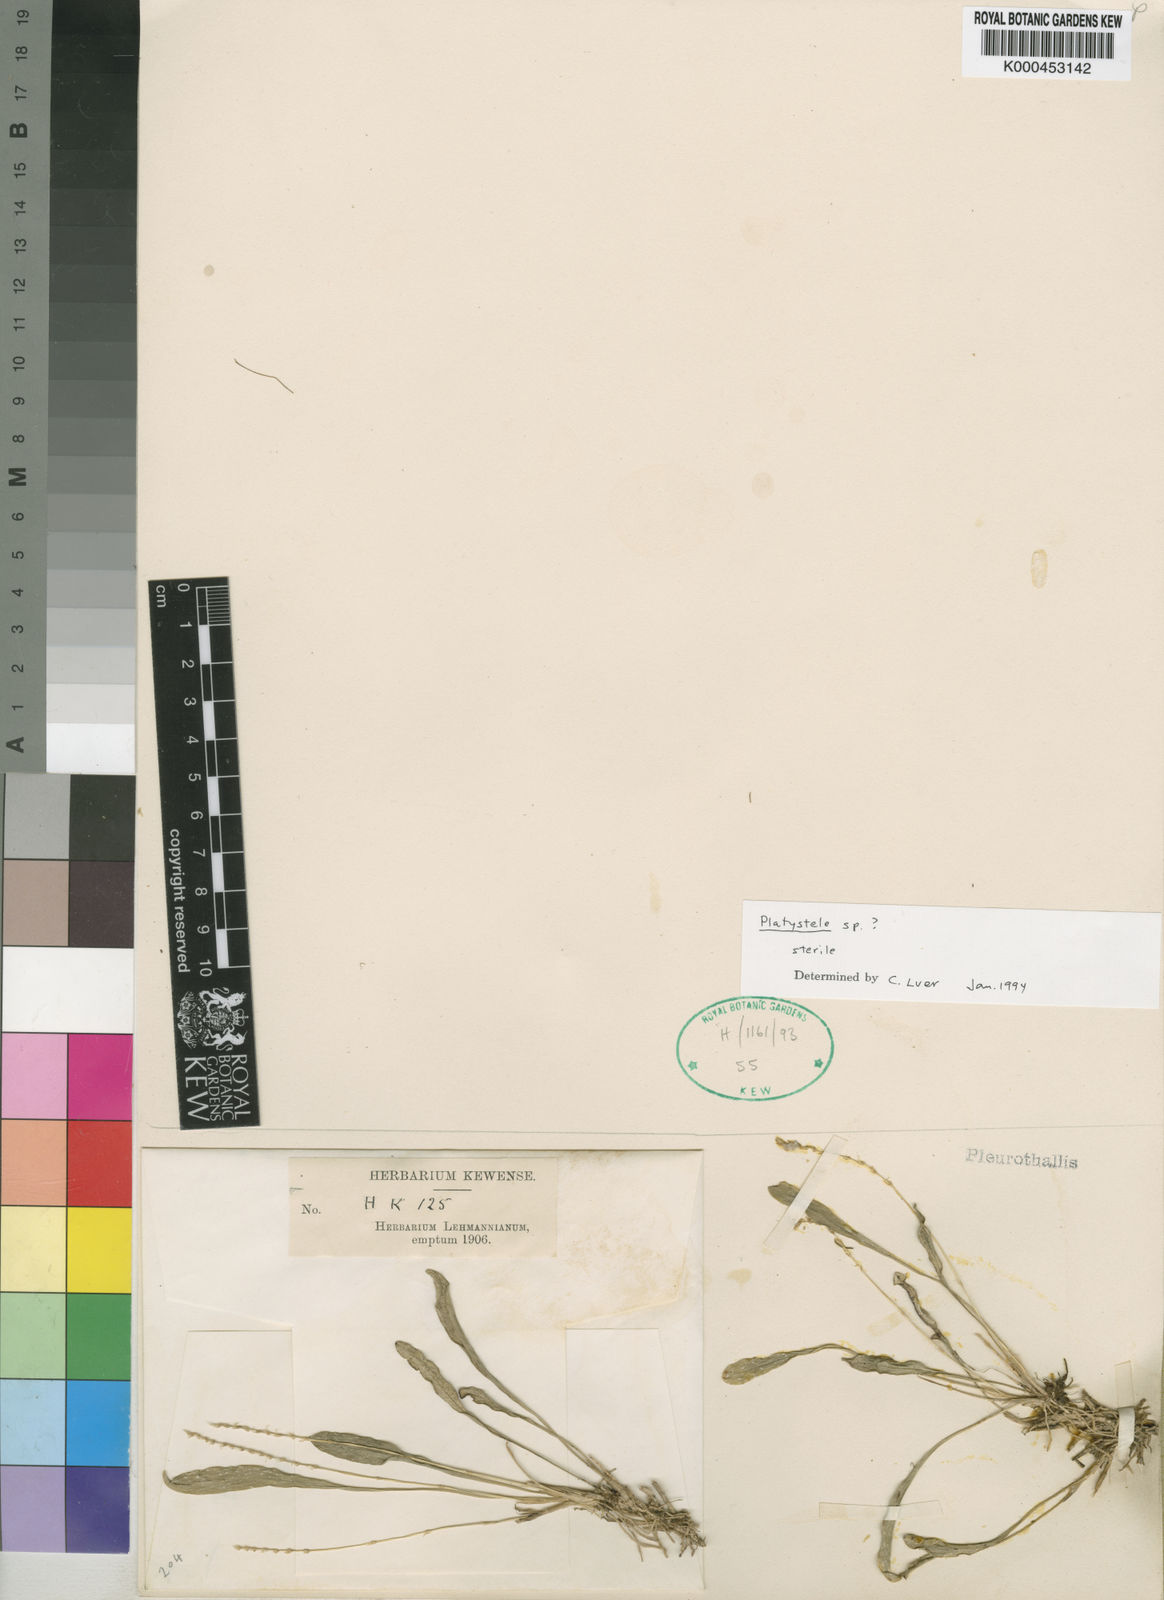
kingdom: Plantae
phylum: Tracheophyta
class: Liliopsida
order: Asparagales
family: Orchidaceae
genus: Platystele
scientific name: Platystele
